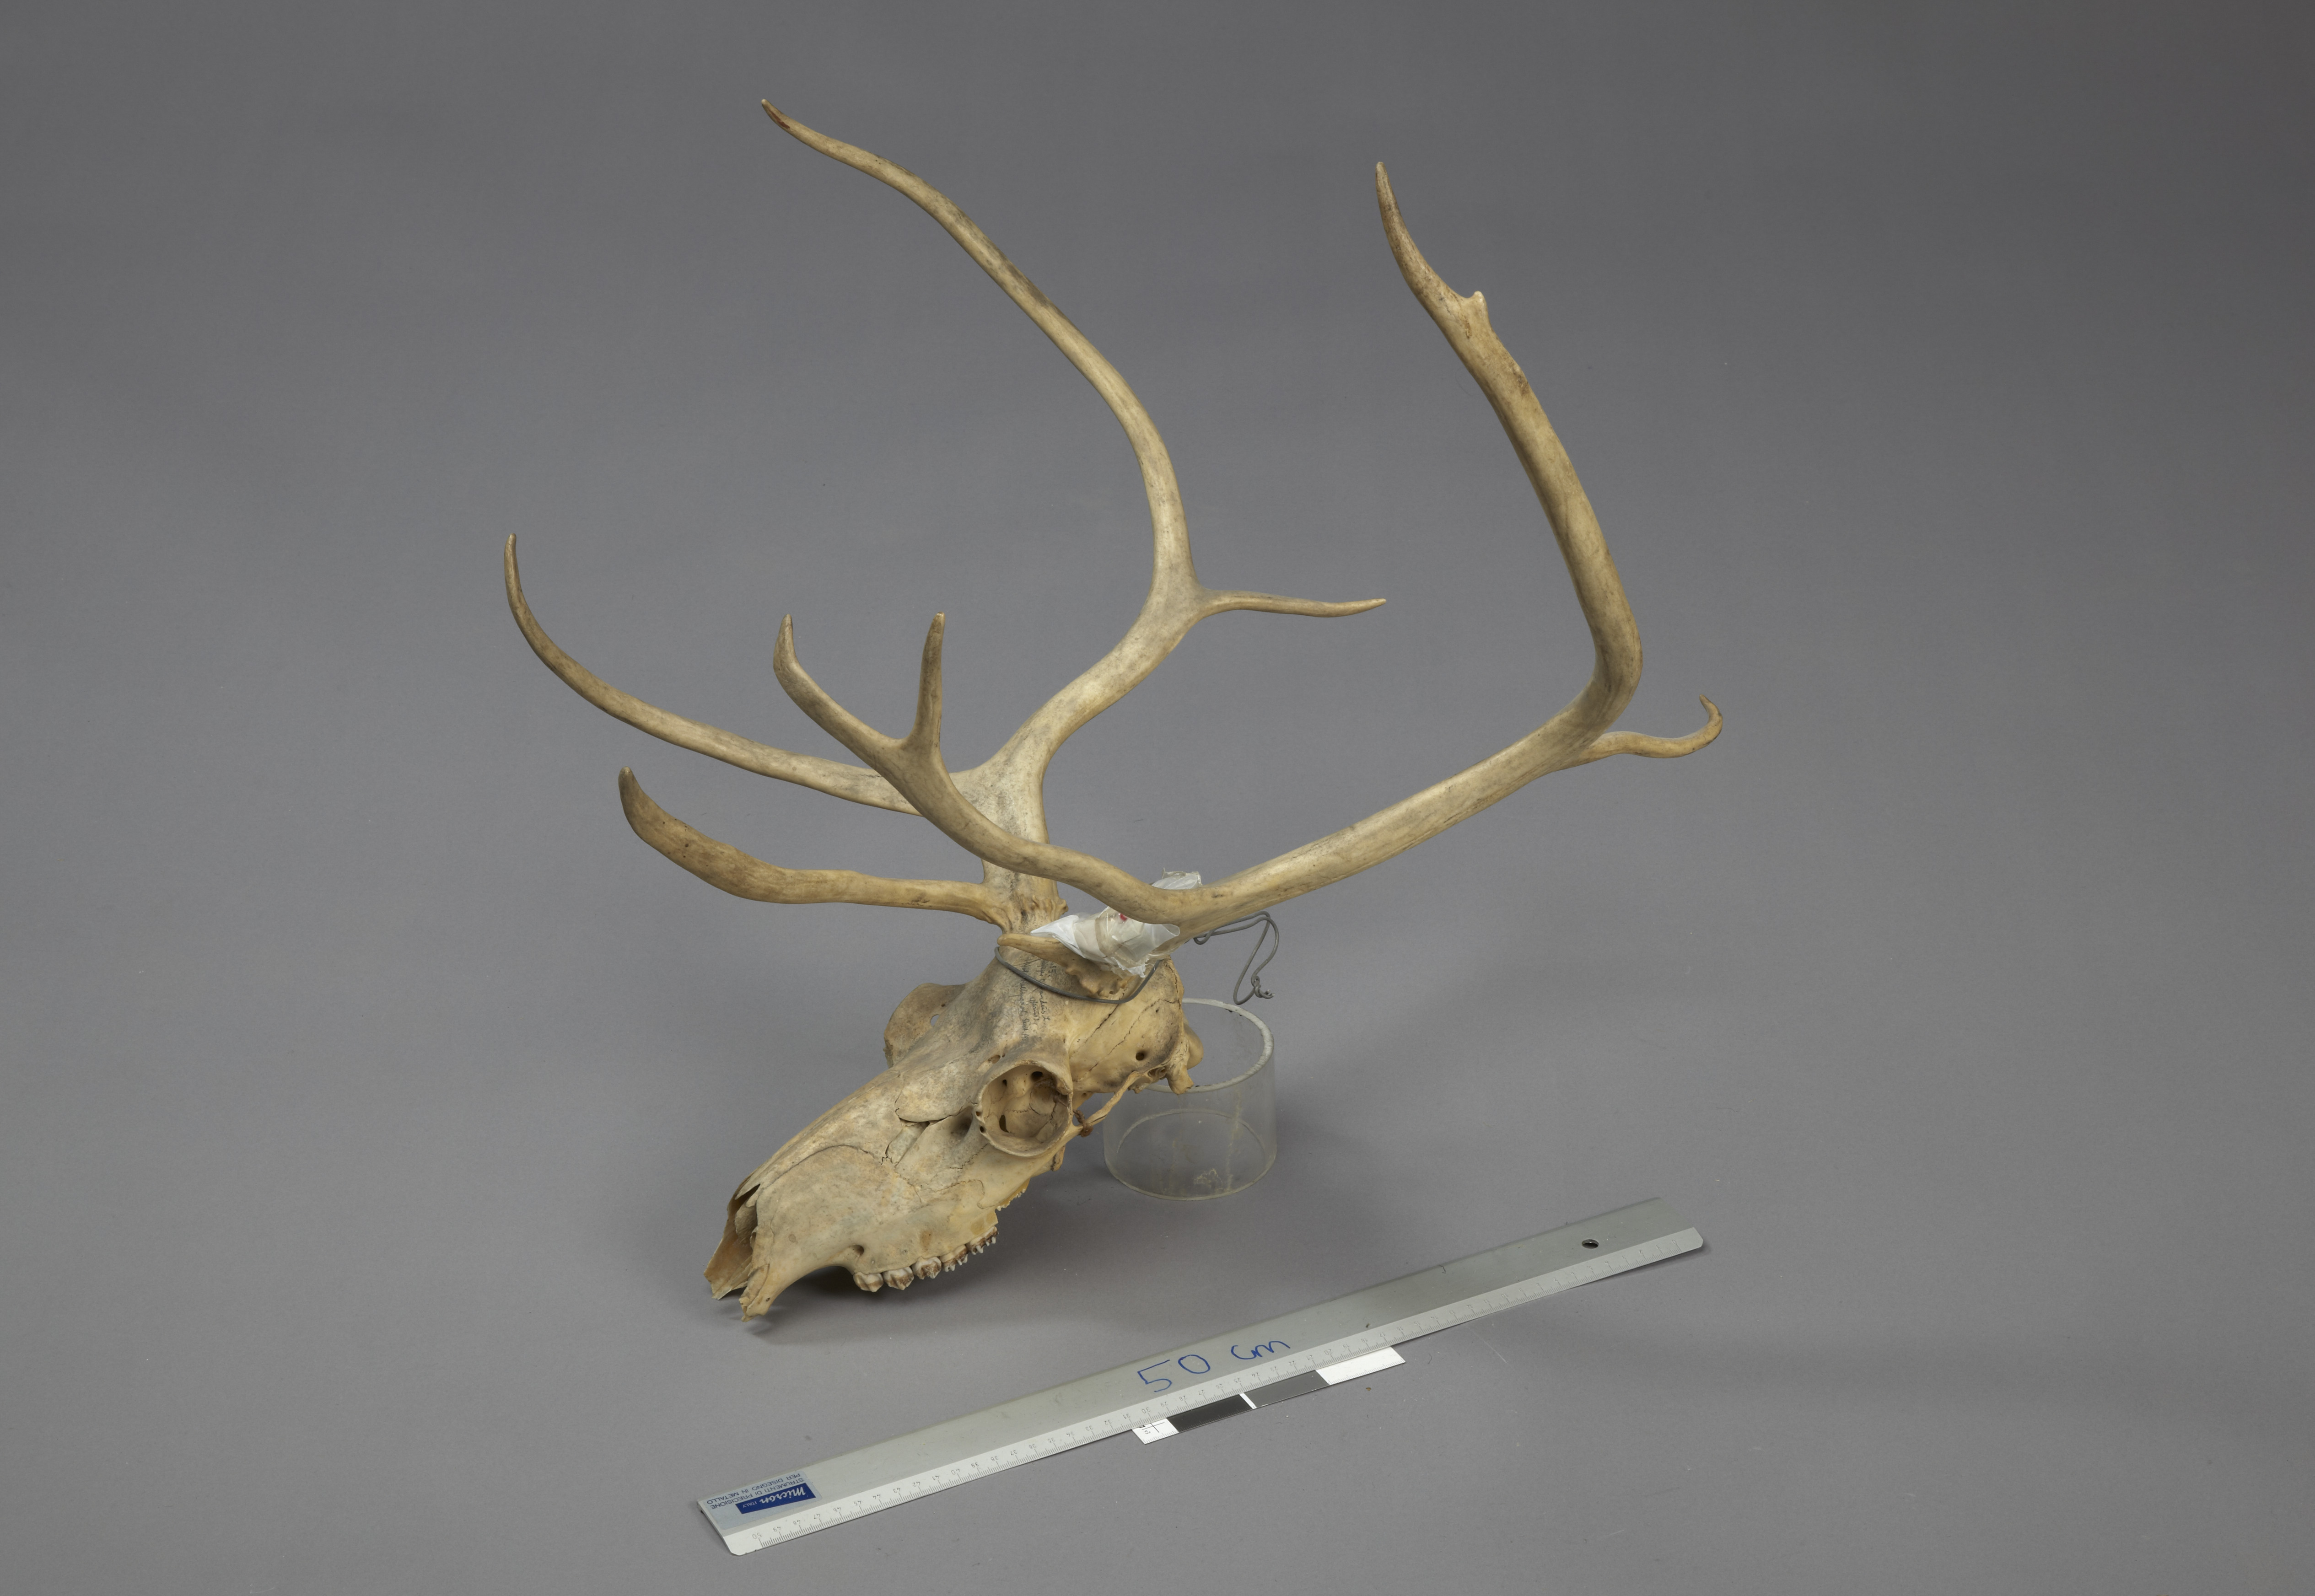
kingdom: Animalia
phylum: Chordata
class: Mammalia
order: Artiodactyla
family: Cervidae
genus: Rangifer
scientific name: Rangifer tarandus
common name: Reindeer
